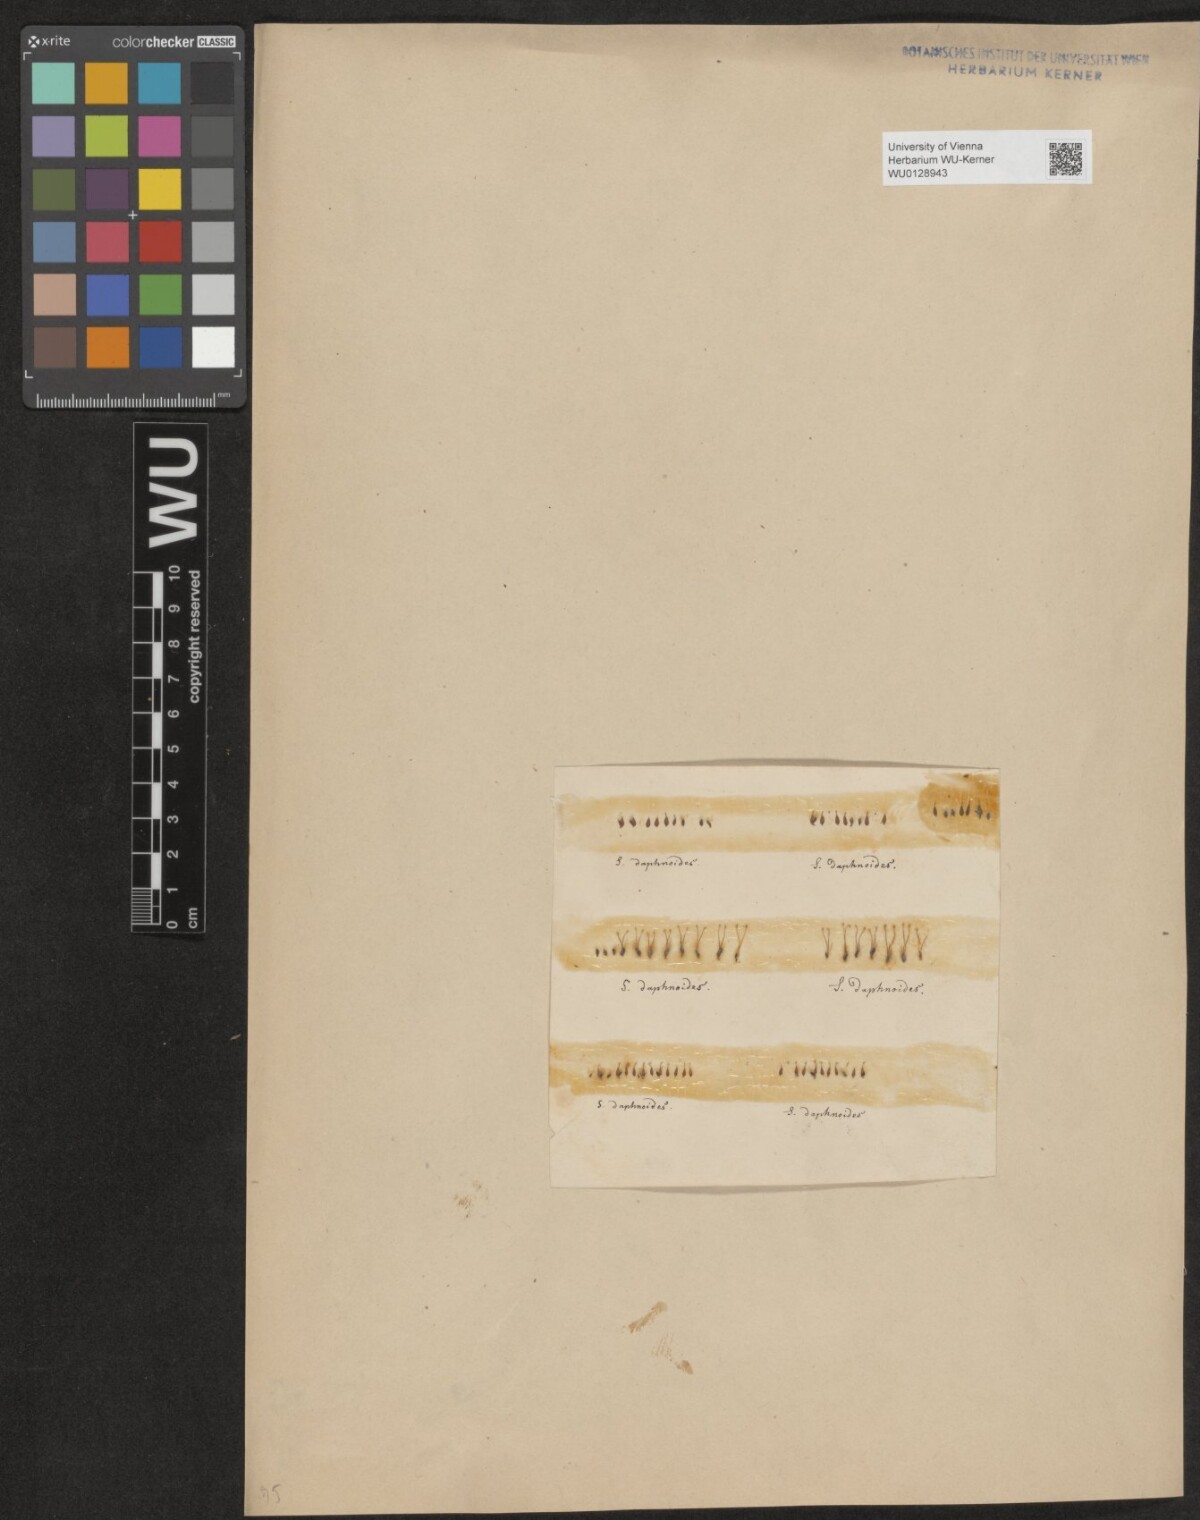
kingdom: Plantae
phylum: Tracheophyta
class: Magnoliopsida
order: Malpighiales
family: Salicaceae
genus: Salix
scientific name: Salix daphnoides
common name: European violet-willow
